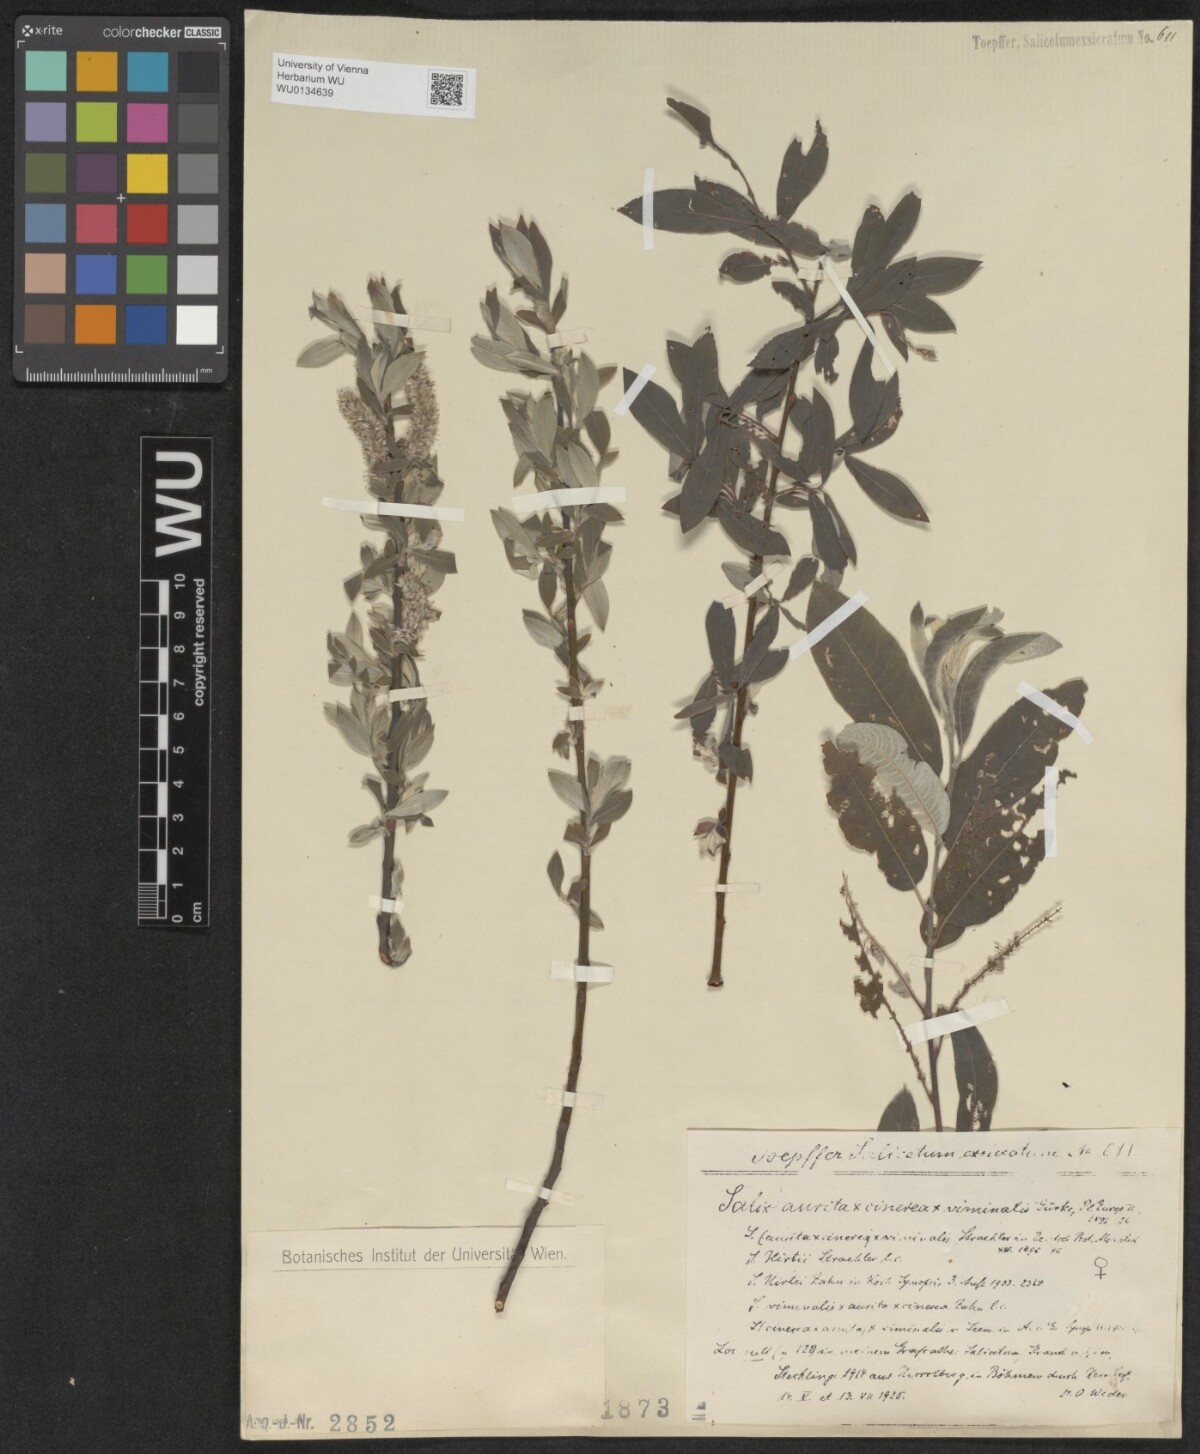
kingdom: Plantae
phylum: Tracheophyta
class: Magnoliopsida
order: Malpighiales
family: Salicaceae
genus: Salix
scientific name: Salix
